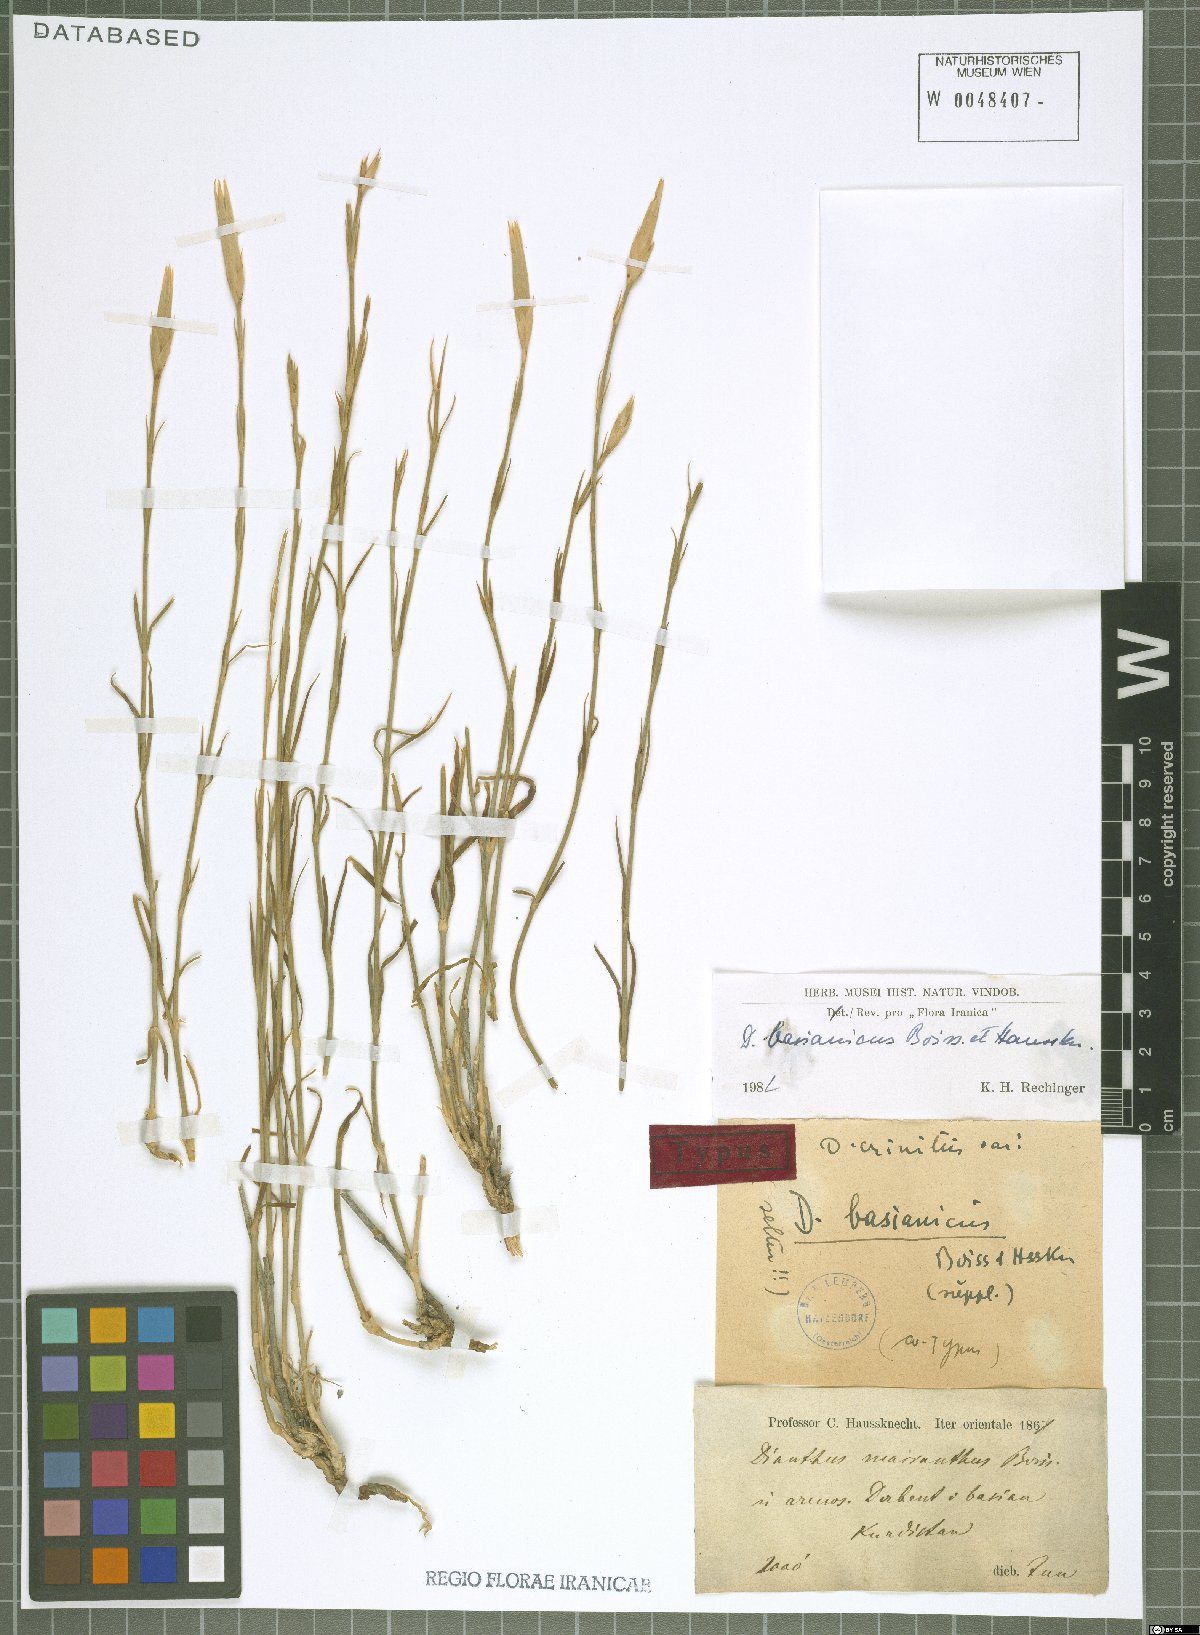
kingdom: Plantae
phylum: Tracheophyta
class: Magnoliopsida
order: Caryophyllales
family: Caryophyllaceae
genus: Dianthus
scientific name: Dianthus basianicus
